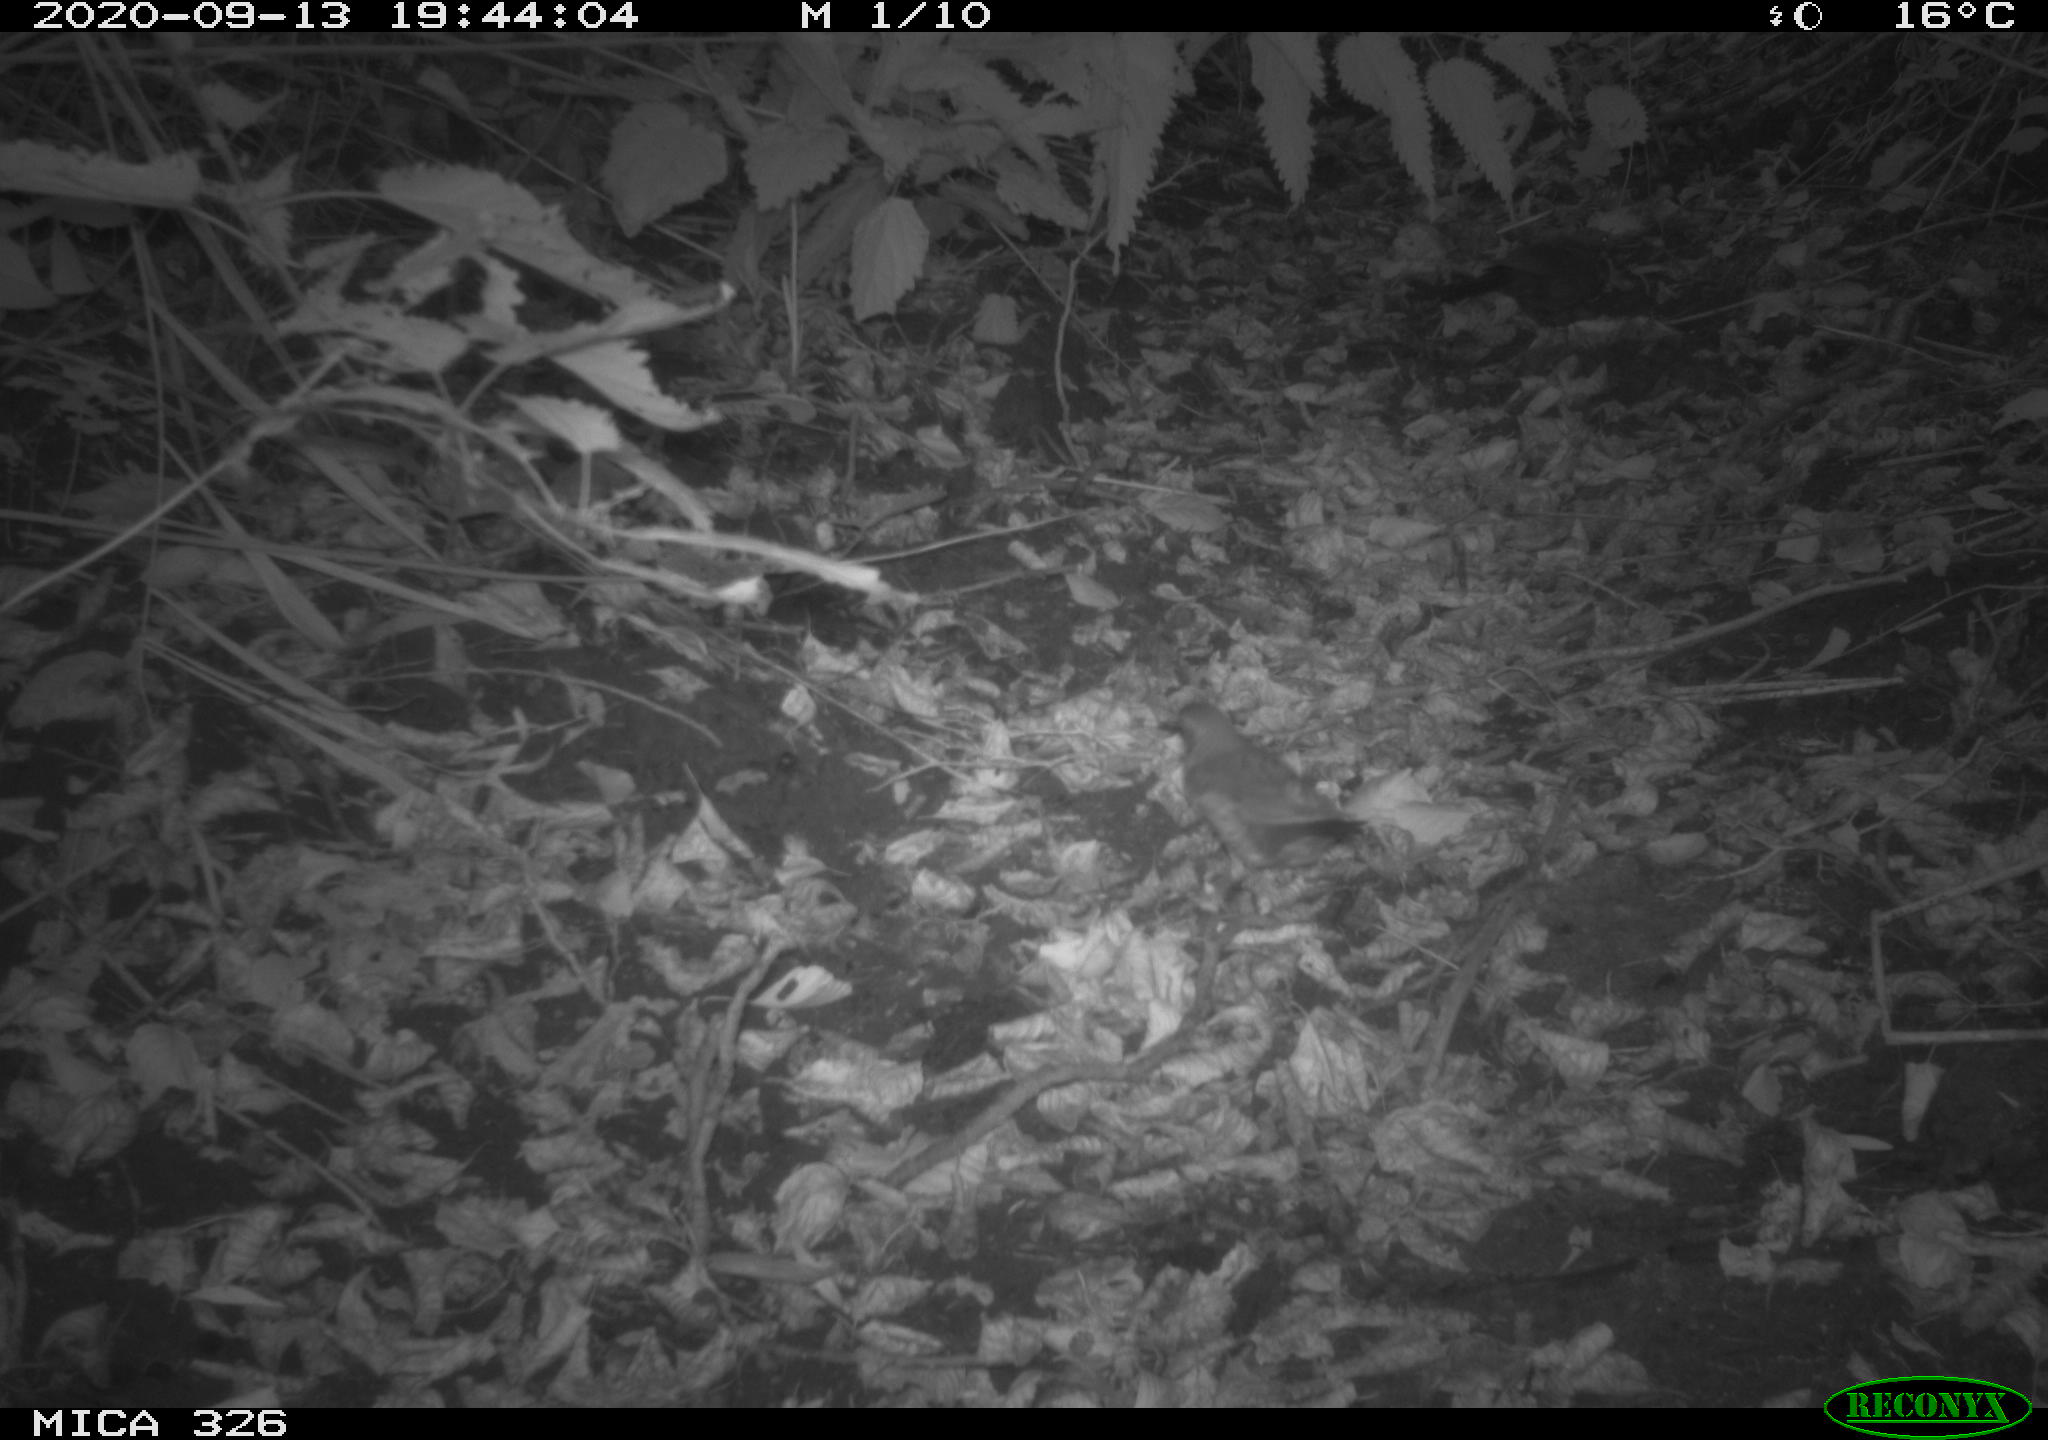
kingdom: Animalia
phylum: Chordata
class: Aves
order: Passeriformes
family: Turdidae
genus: Turdus
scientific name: Turdus philomelos
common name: Song thrush
